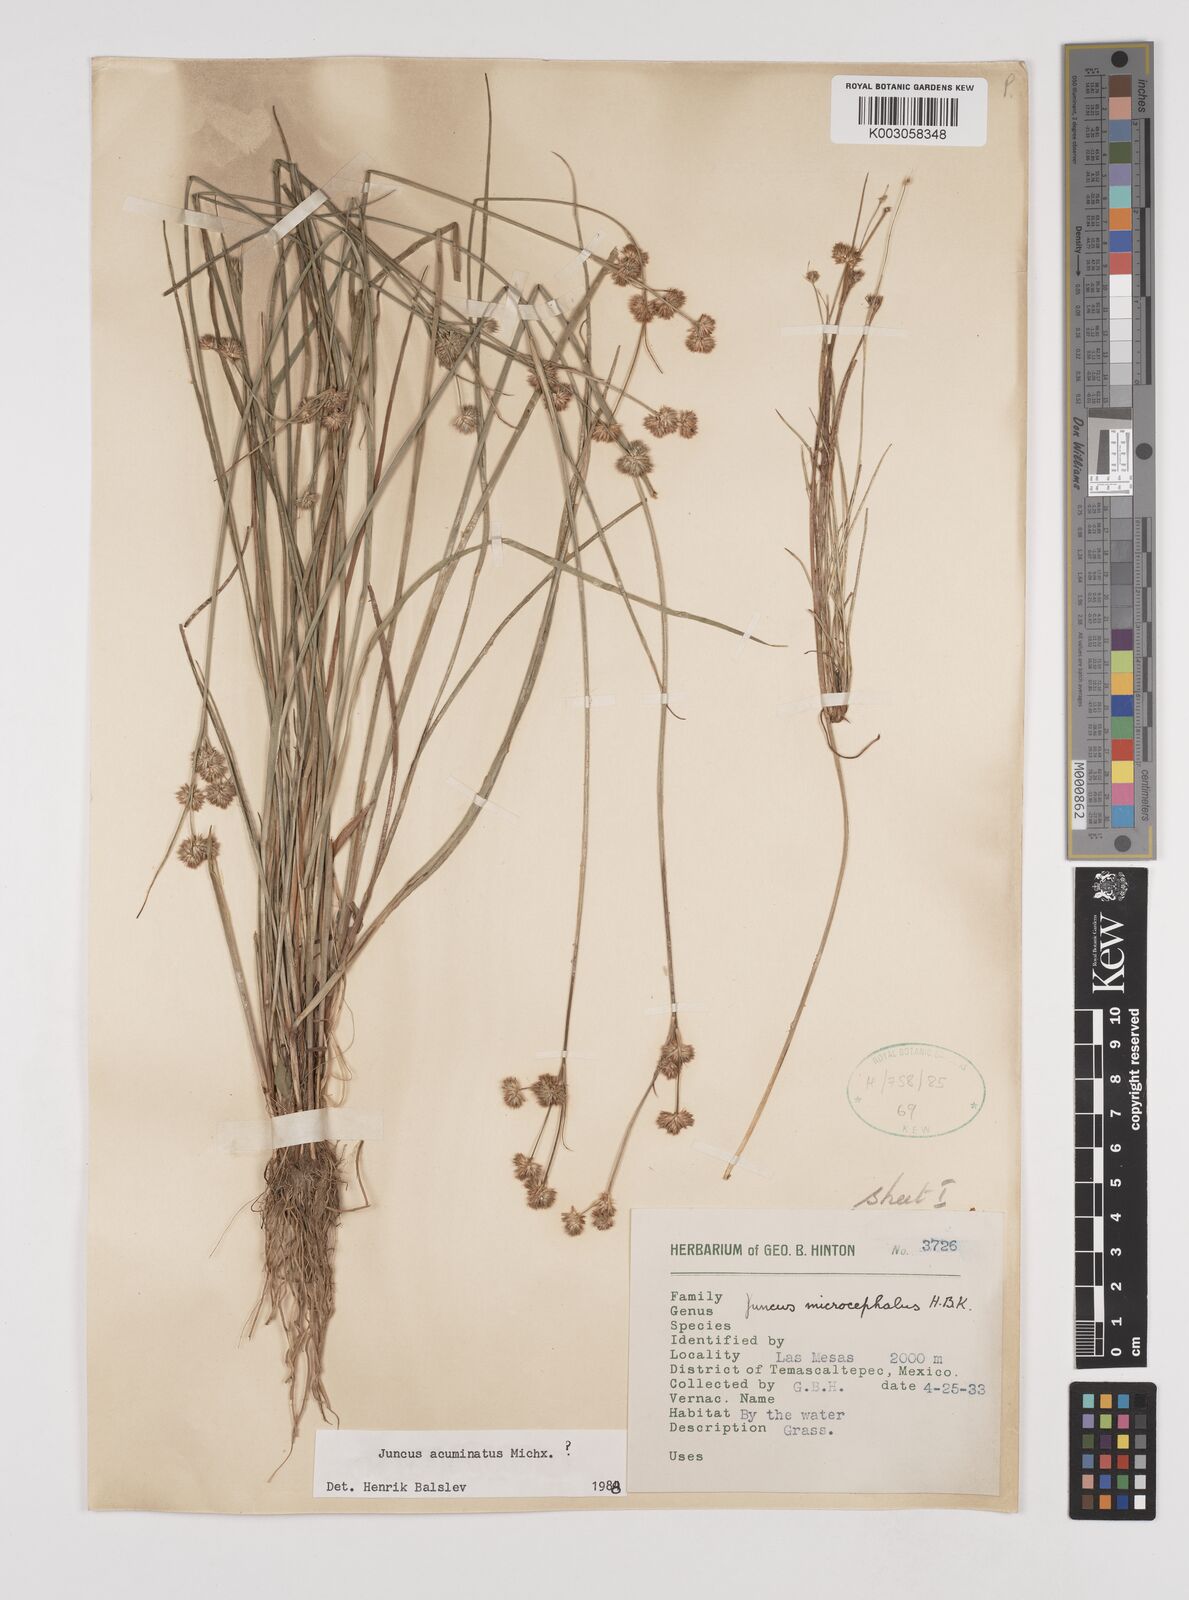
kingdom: Plantae
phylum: Tracheophyta
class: Liliopsida
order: Poales
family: Juncaceae
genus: Juncus
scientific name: Juncus acuminatus
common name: Knotty-leaved rush
